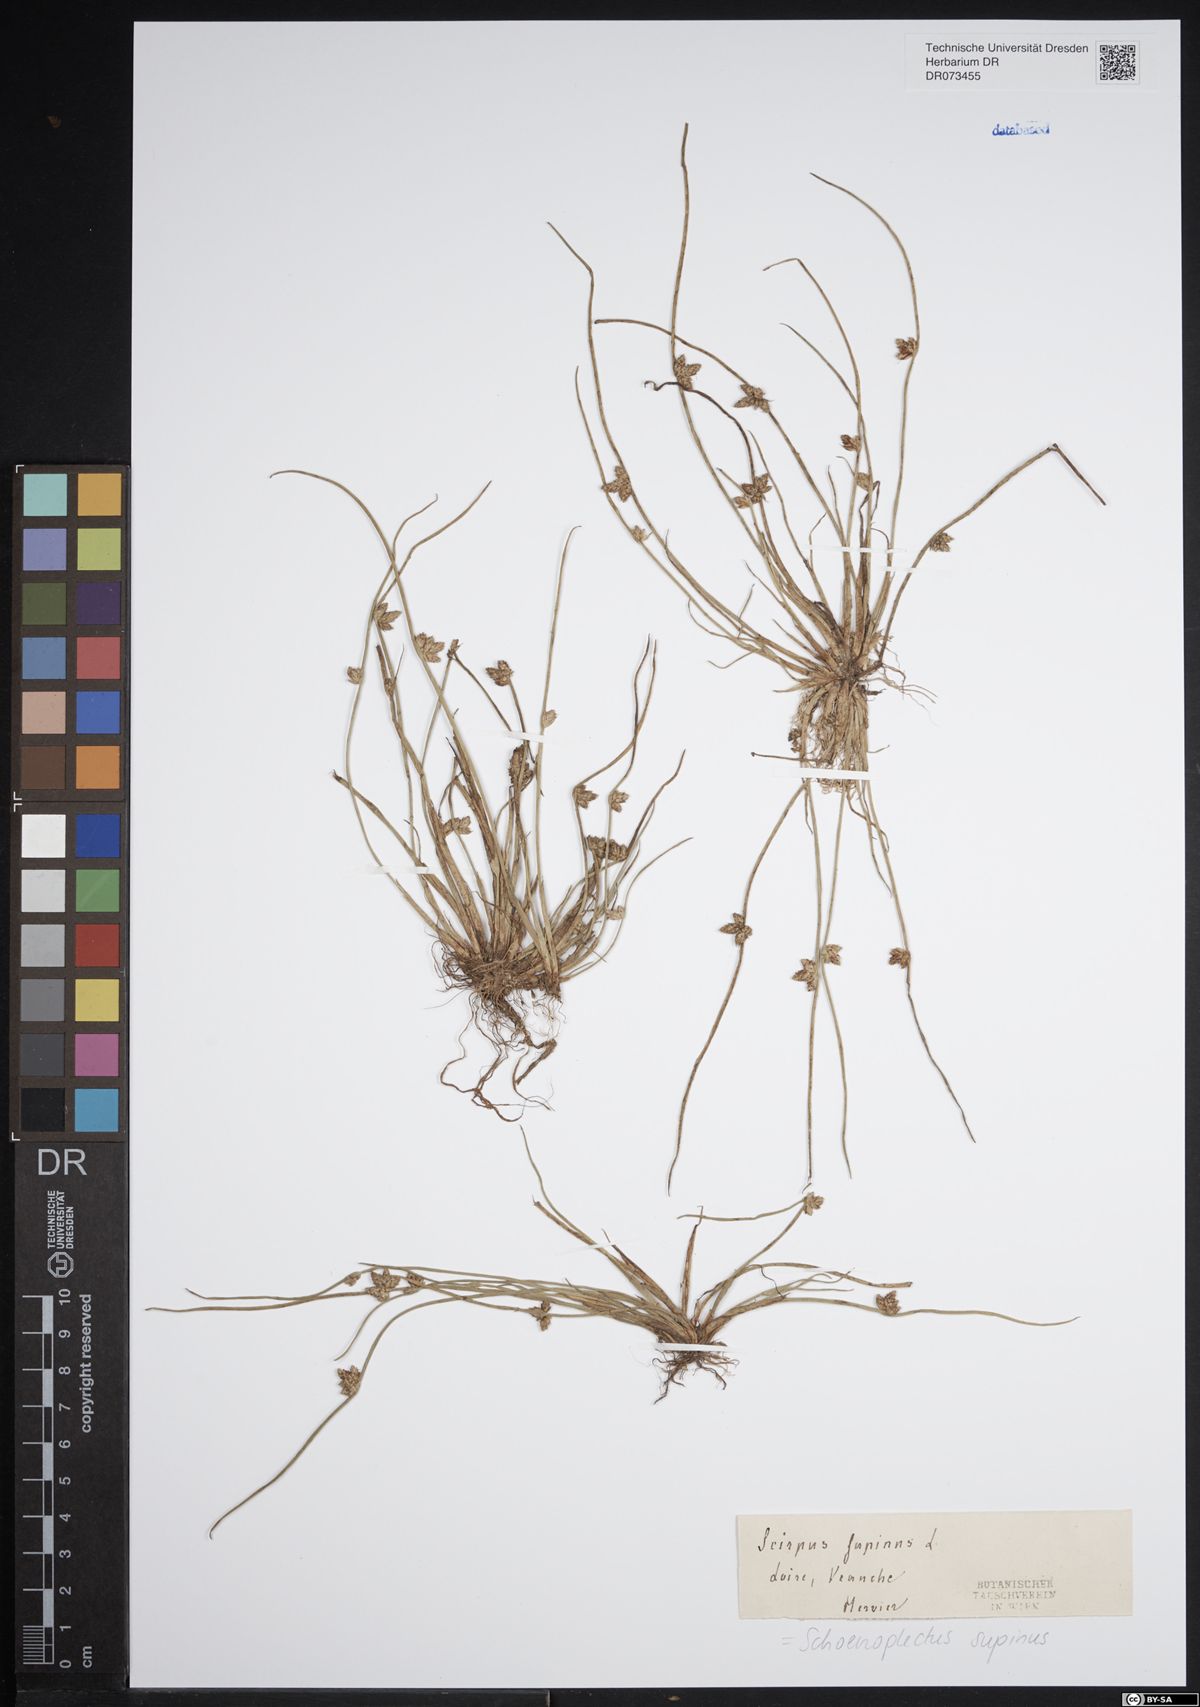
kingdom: Plantae
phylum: Tracheophyta
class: Liliopsida
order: Poales
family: Cyperaceae
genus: Schoenoplectiella
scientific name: Schoenoplectiella supina
